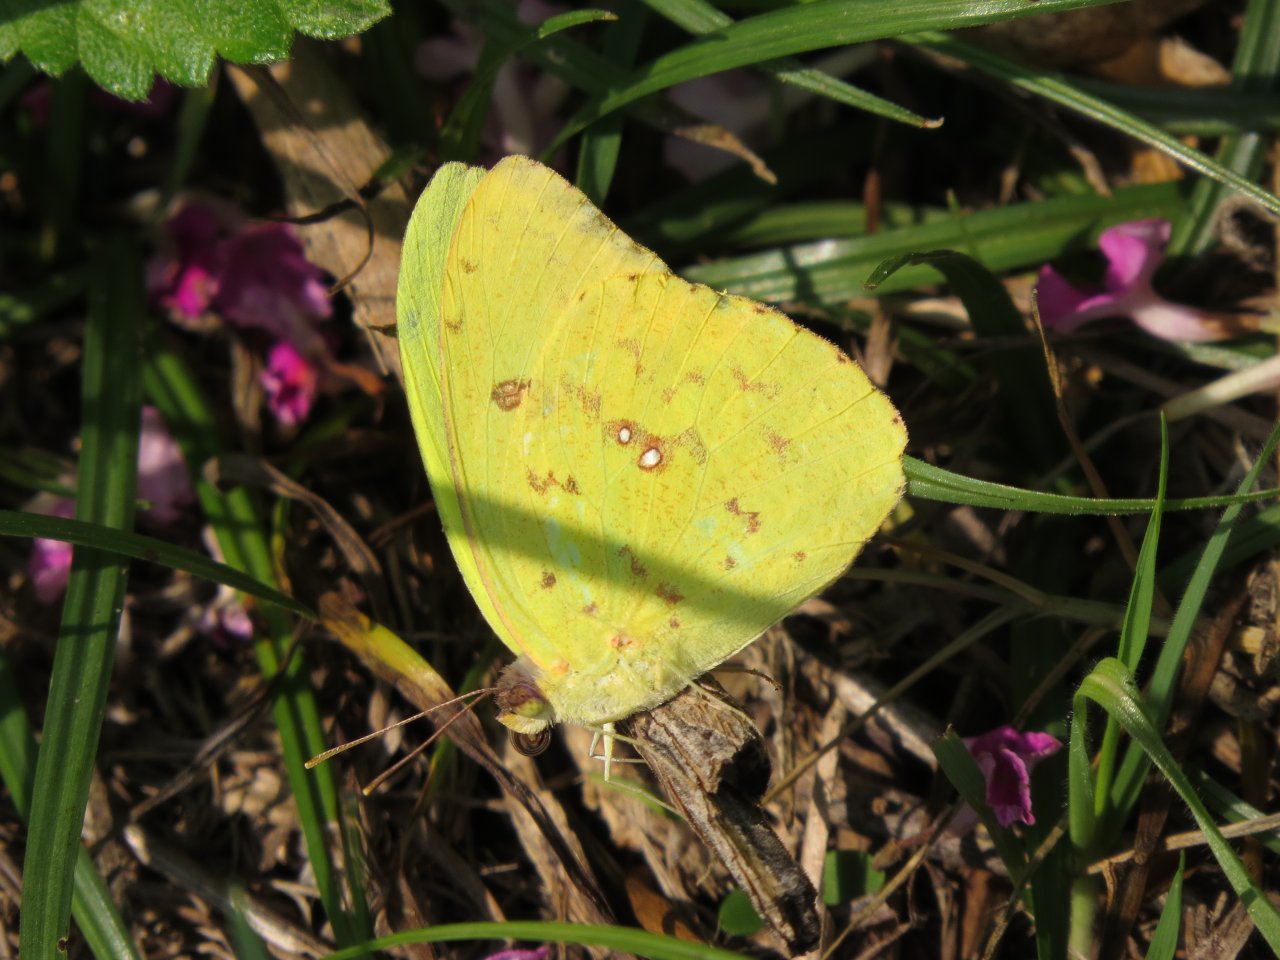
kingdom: Animalia
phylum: Arthropoda
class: Insecta
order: Lepidoptera
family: Pieridae
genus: Phoebis
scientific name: Phoebis sennae
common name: Cloudless Sulphur
